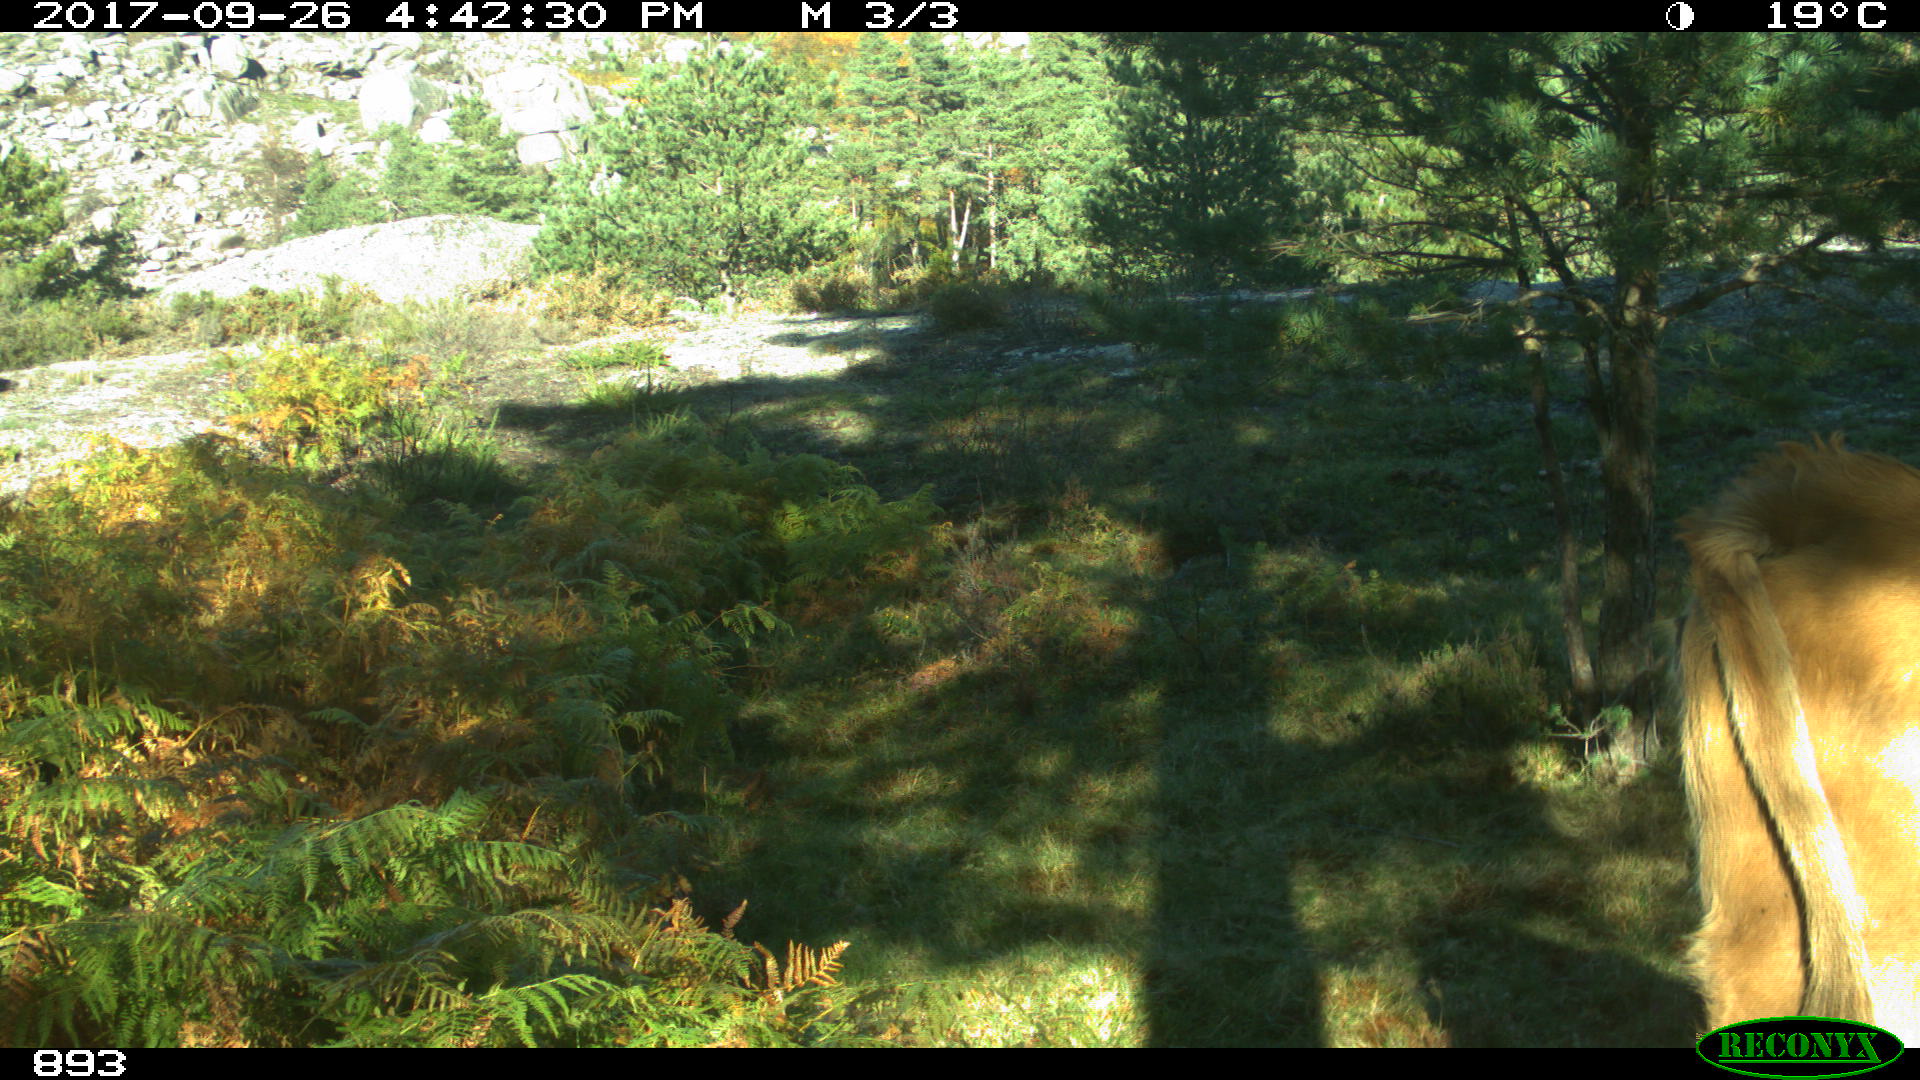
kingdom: Animalia
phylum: Chordata
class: Mammalia
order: Artiodactyla
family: Bovidae
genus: Bos
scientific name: Bos taurus
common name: Domesticated cattle
